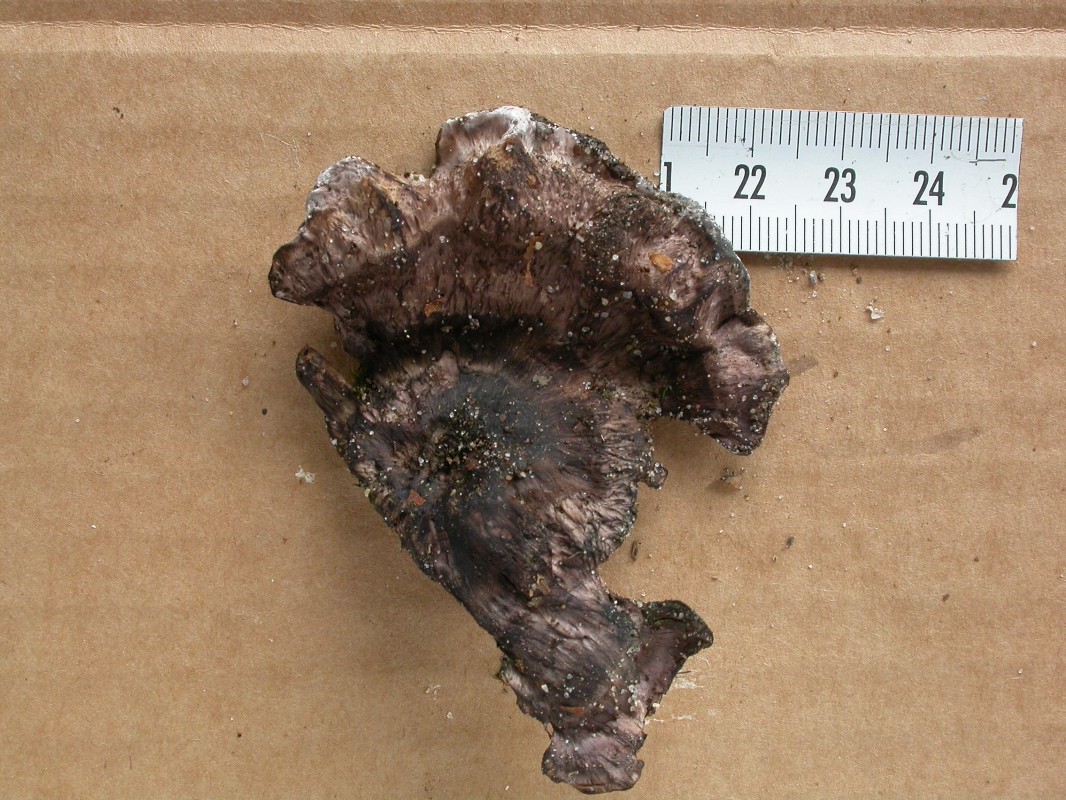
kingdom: Fungi
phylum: Basidiomycota
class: Agaricomycetes
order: Thelephorales
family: Bankeraceae
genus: Hydnellum
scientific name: Hydnellum spongiosipes
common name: filtet korkpigsvamp
